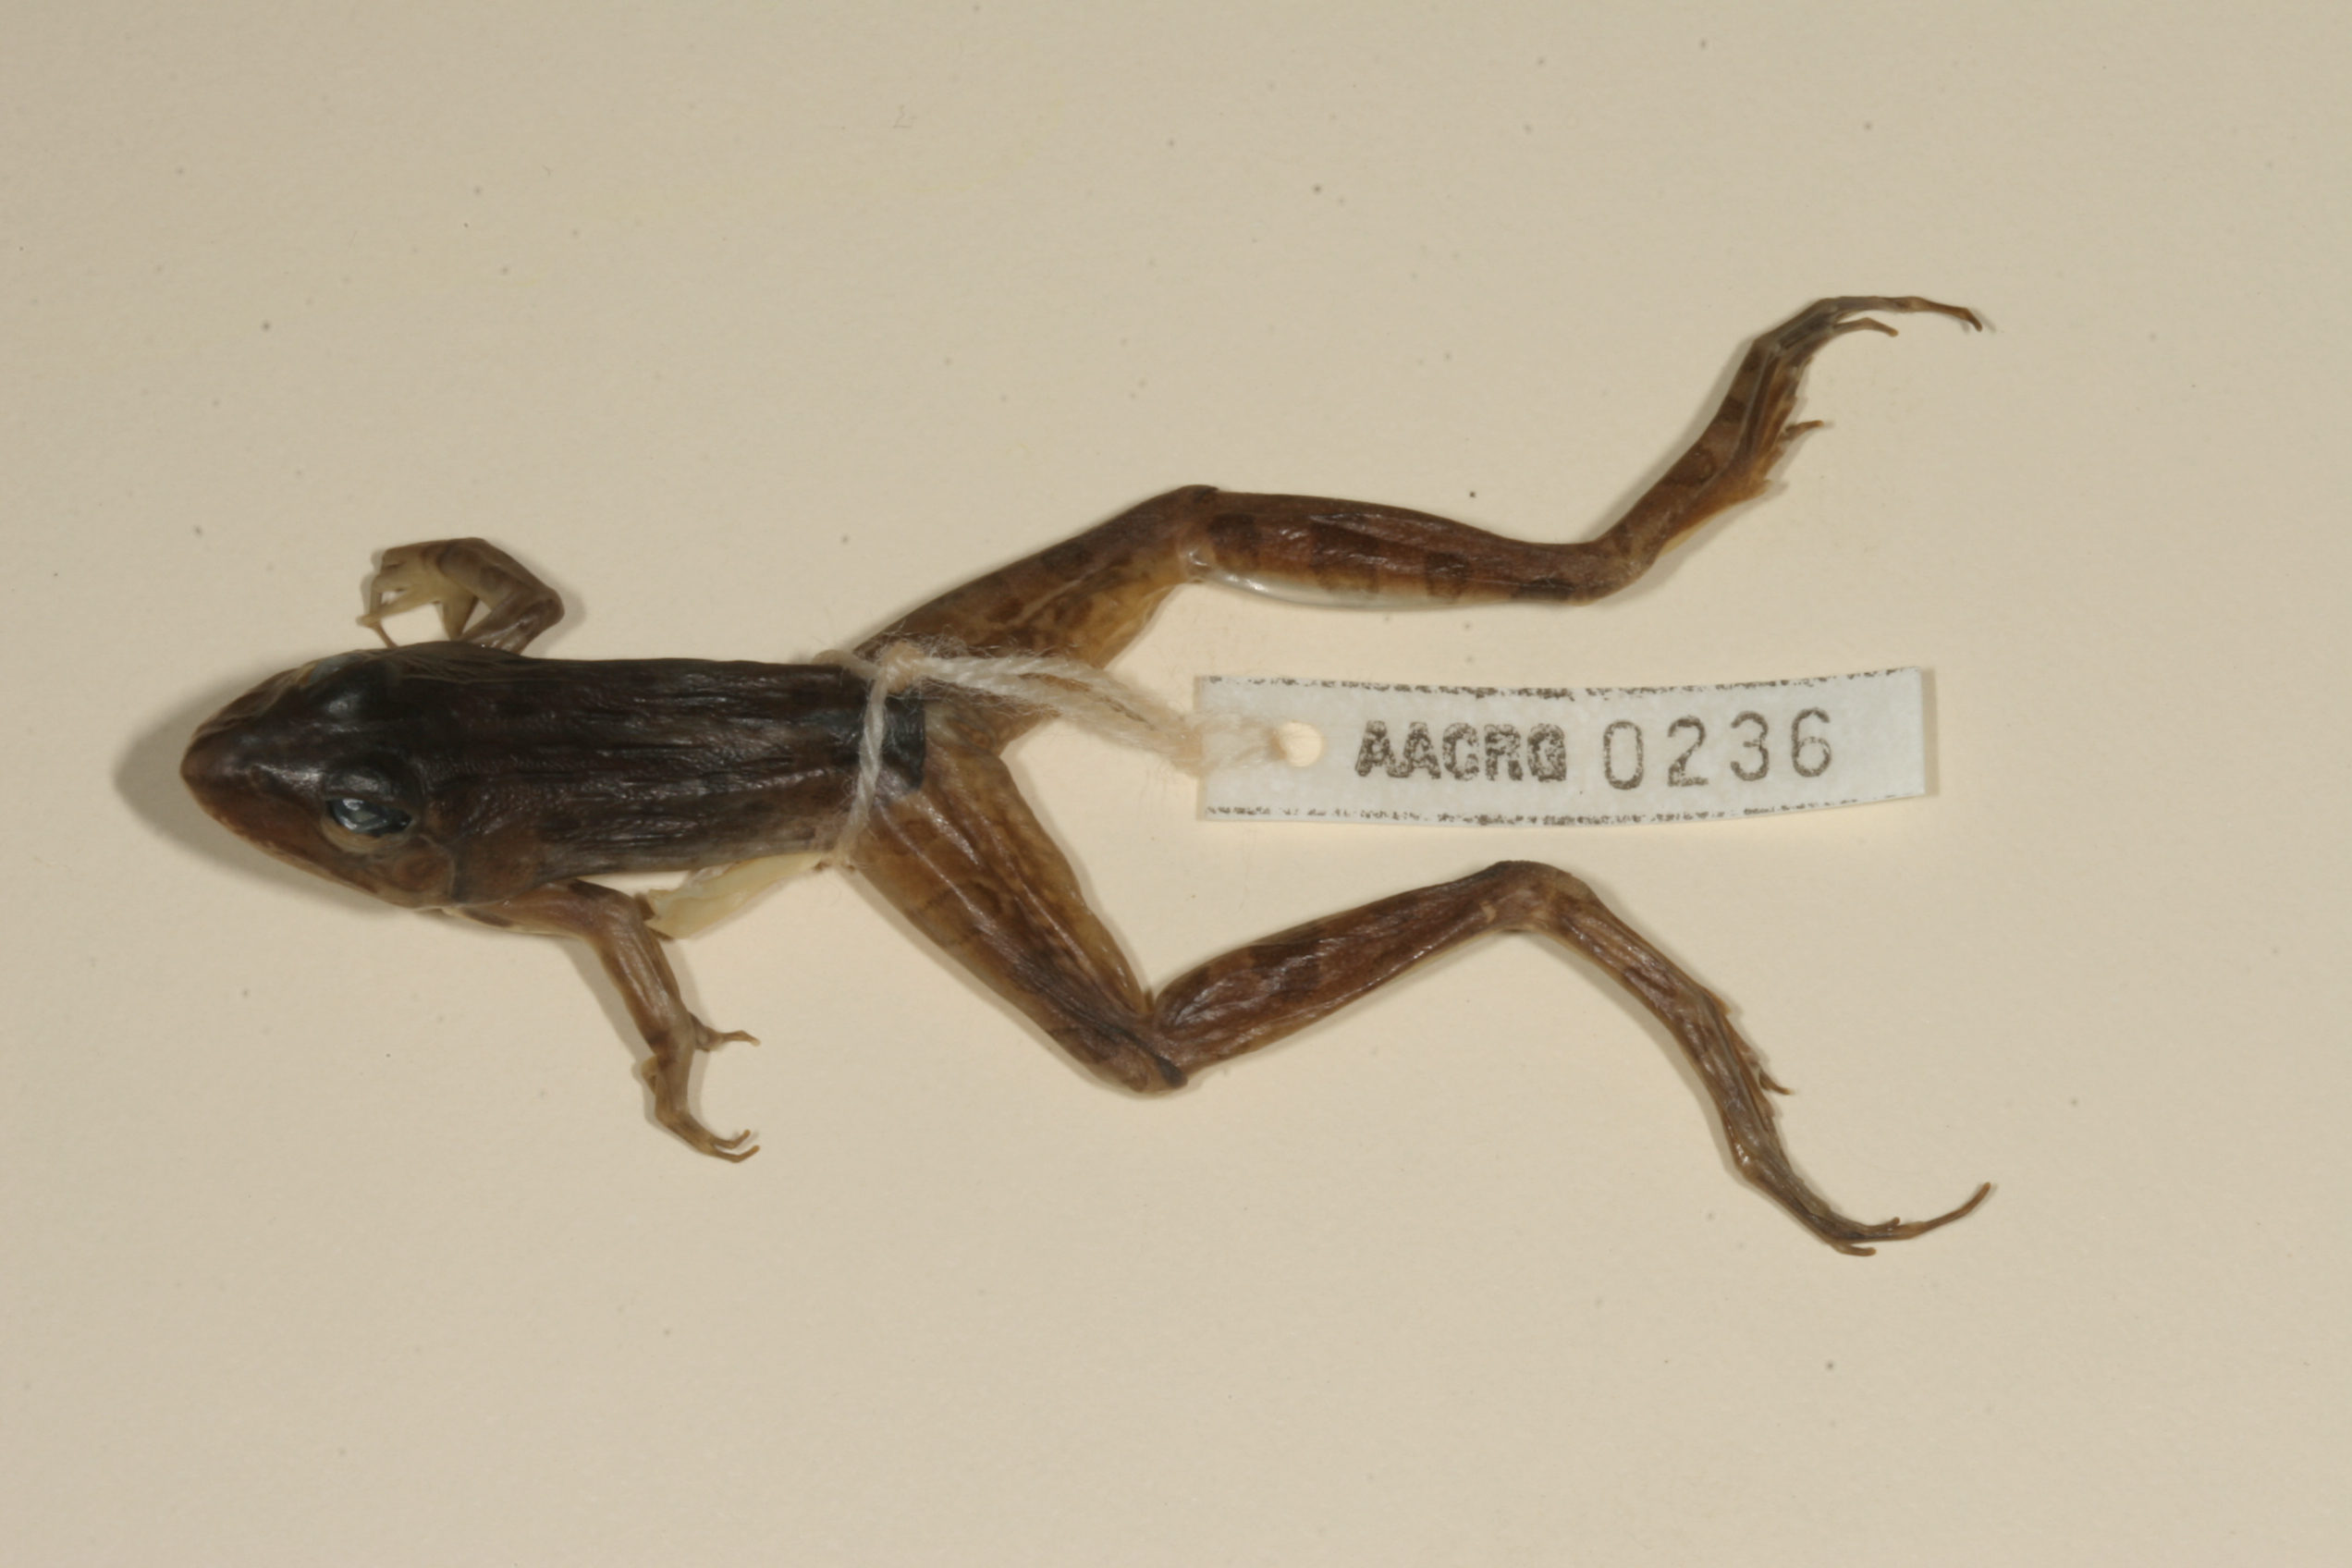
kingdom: Animalia
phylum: Chordata
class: Amphibia
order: Anura
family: Pyxicephalidae
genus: Amietia
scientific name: Amietia angolensis
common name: Dusky-throated frog
